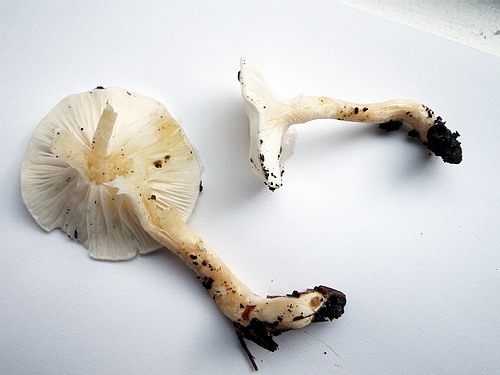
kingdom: Fungi
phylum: Basidiomycota
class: Agaricomycetes
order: Agaricales
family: Hygrophoraceae
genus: Hygrophorus
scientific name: Hygrophorus eburneus
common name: elfenbens-sneglehat
